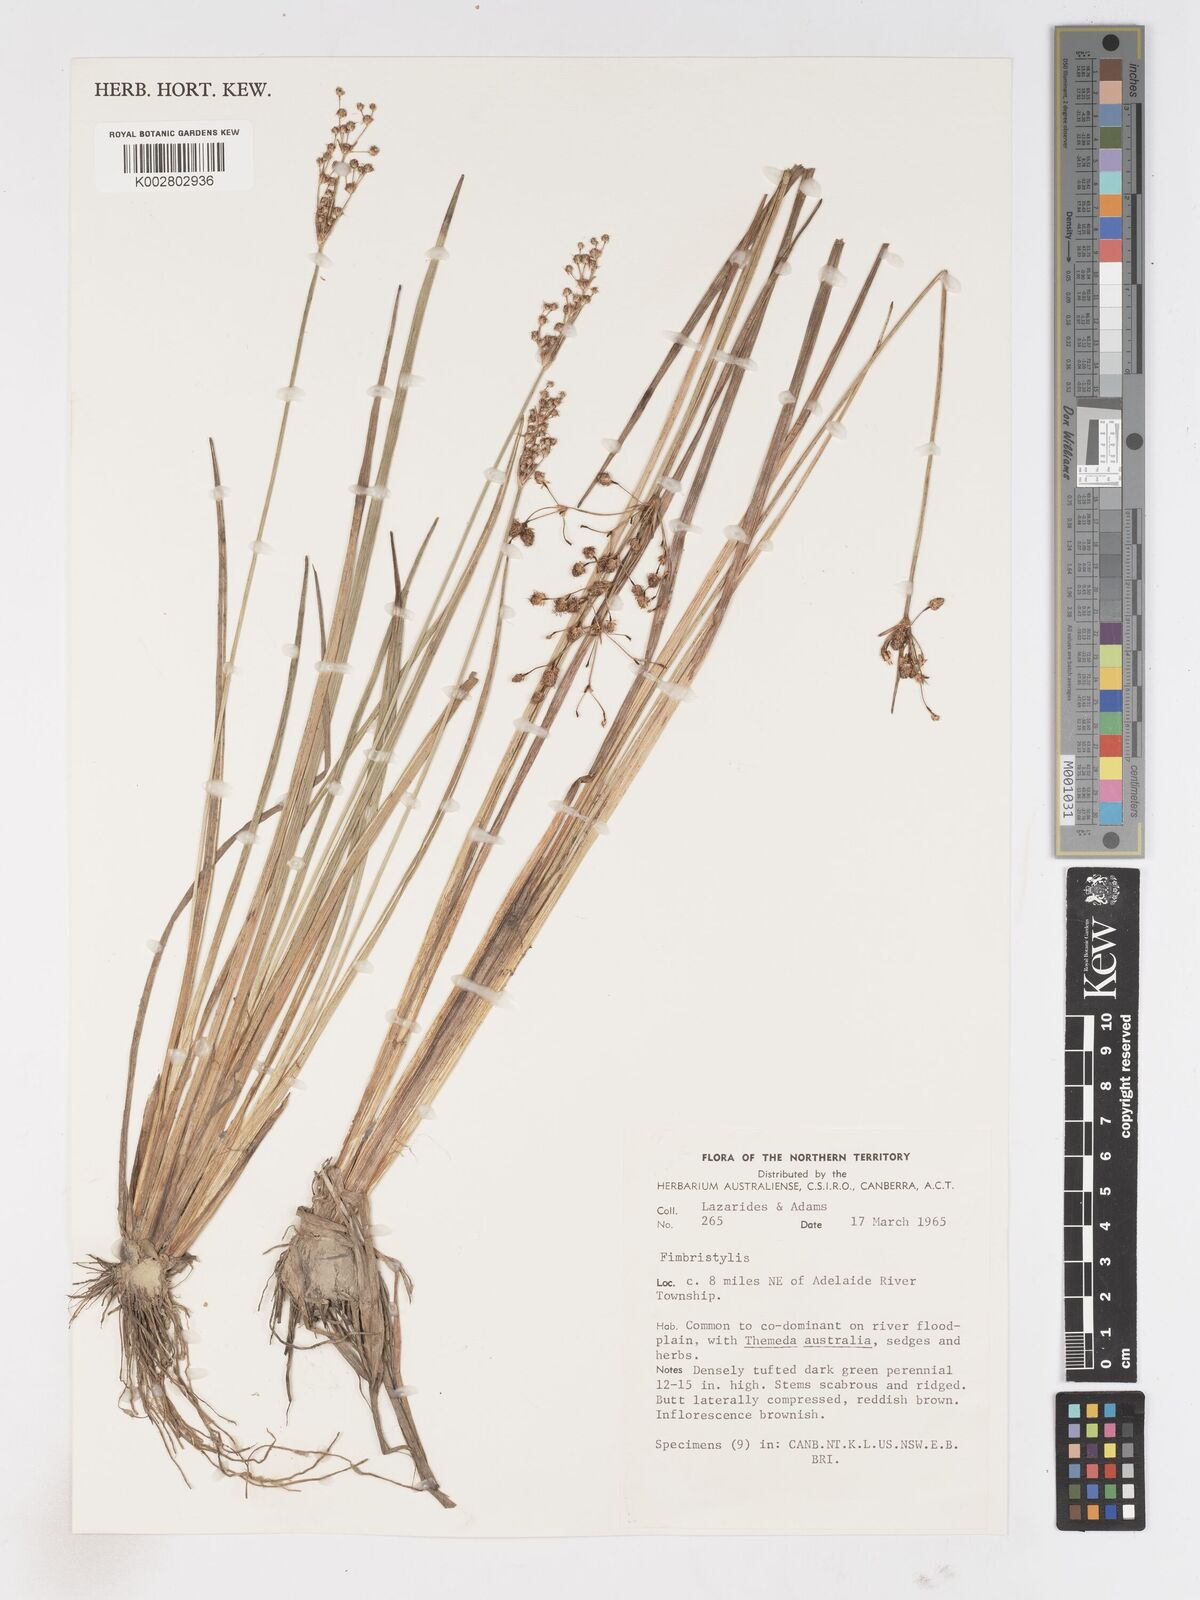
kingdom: Plantae
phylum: Tracheophyta
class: Liliopsida
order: Poales
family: Cyperaceae
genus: Fimbristylis
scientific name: Fimbristylis
